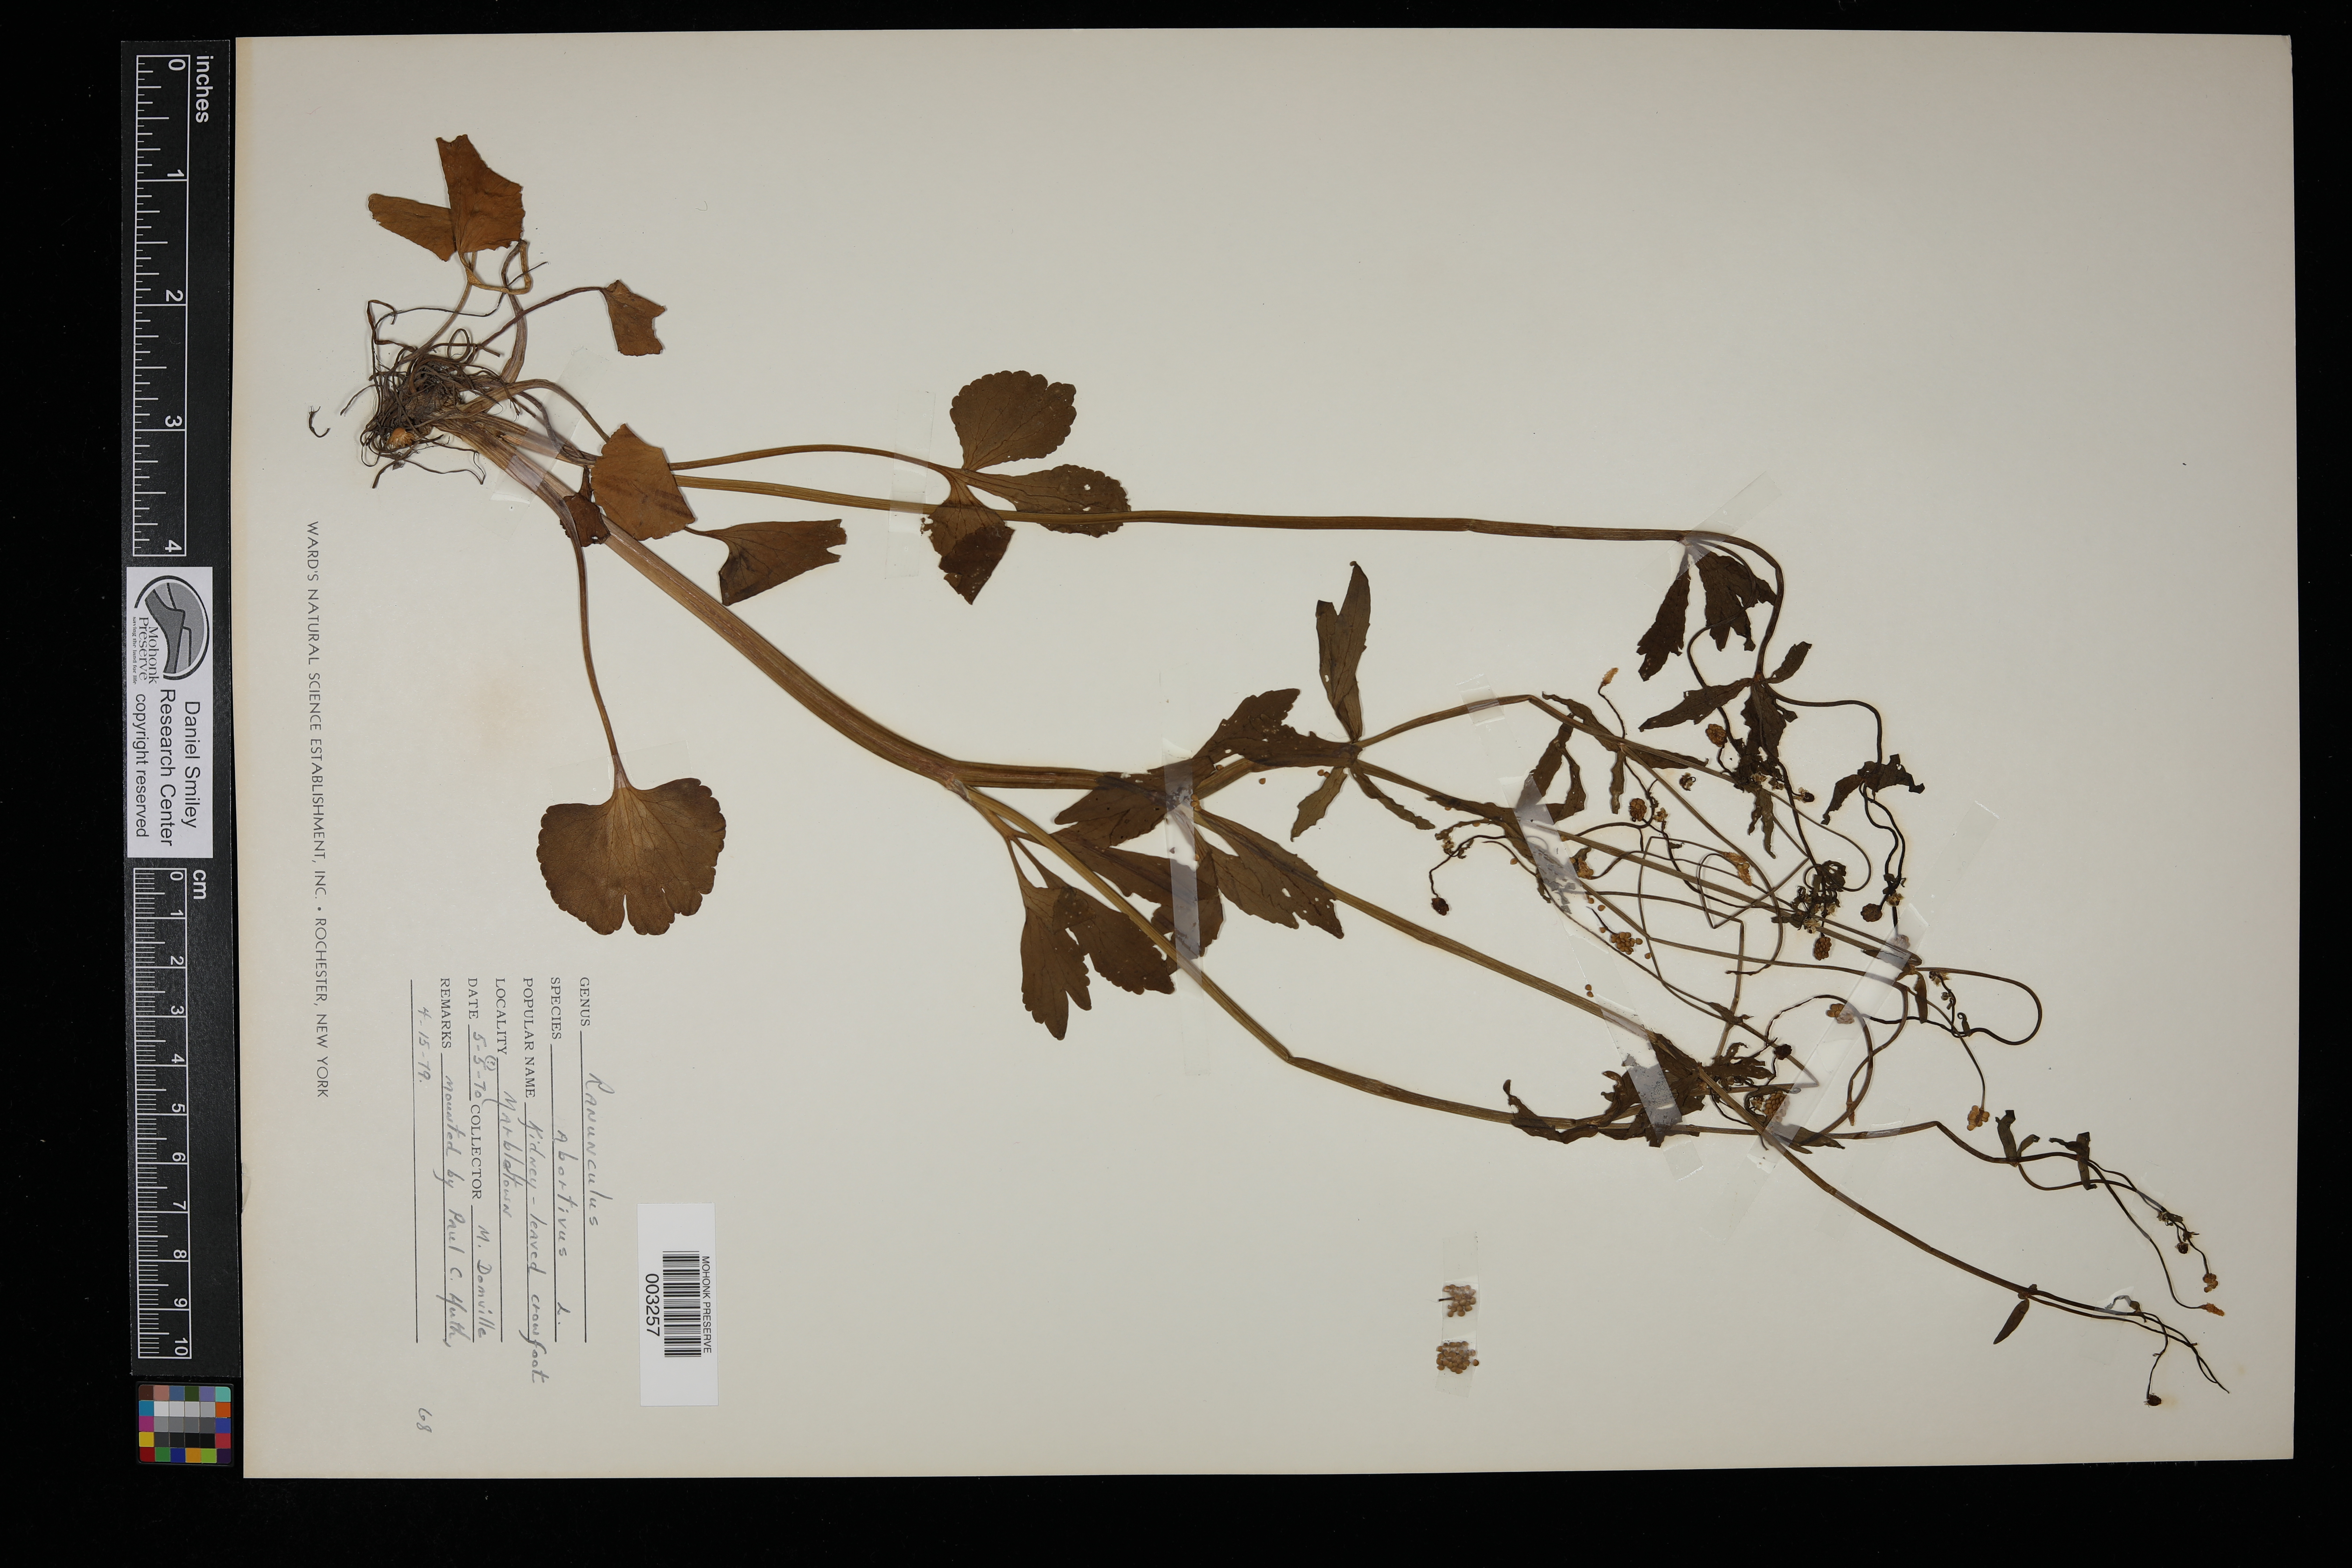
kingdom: Plantae
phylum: Tracheophyta
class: Magnoliopsida
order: Ranunculales
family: Ranunculaceae
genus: Ranunculus
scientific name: Ranunculus abortivus
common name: Early wood buttercup
